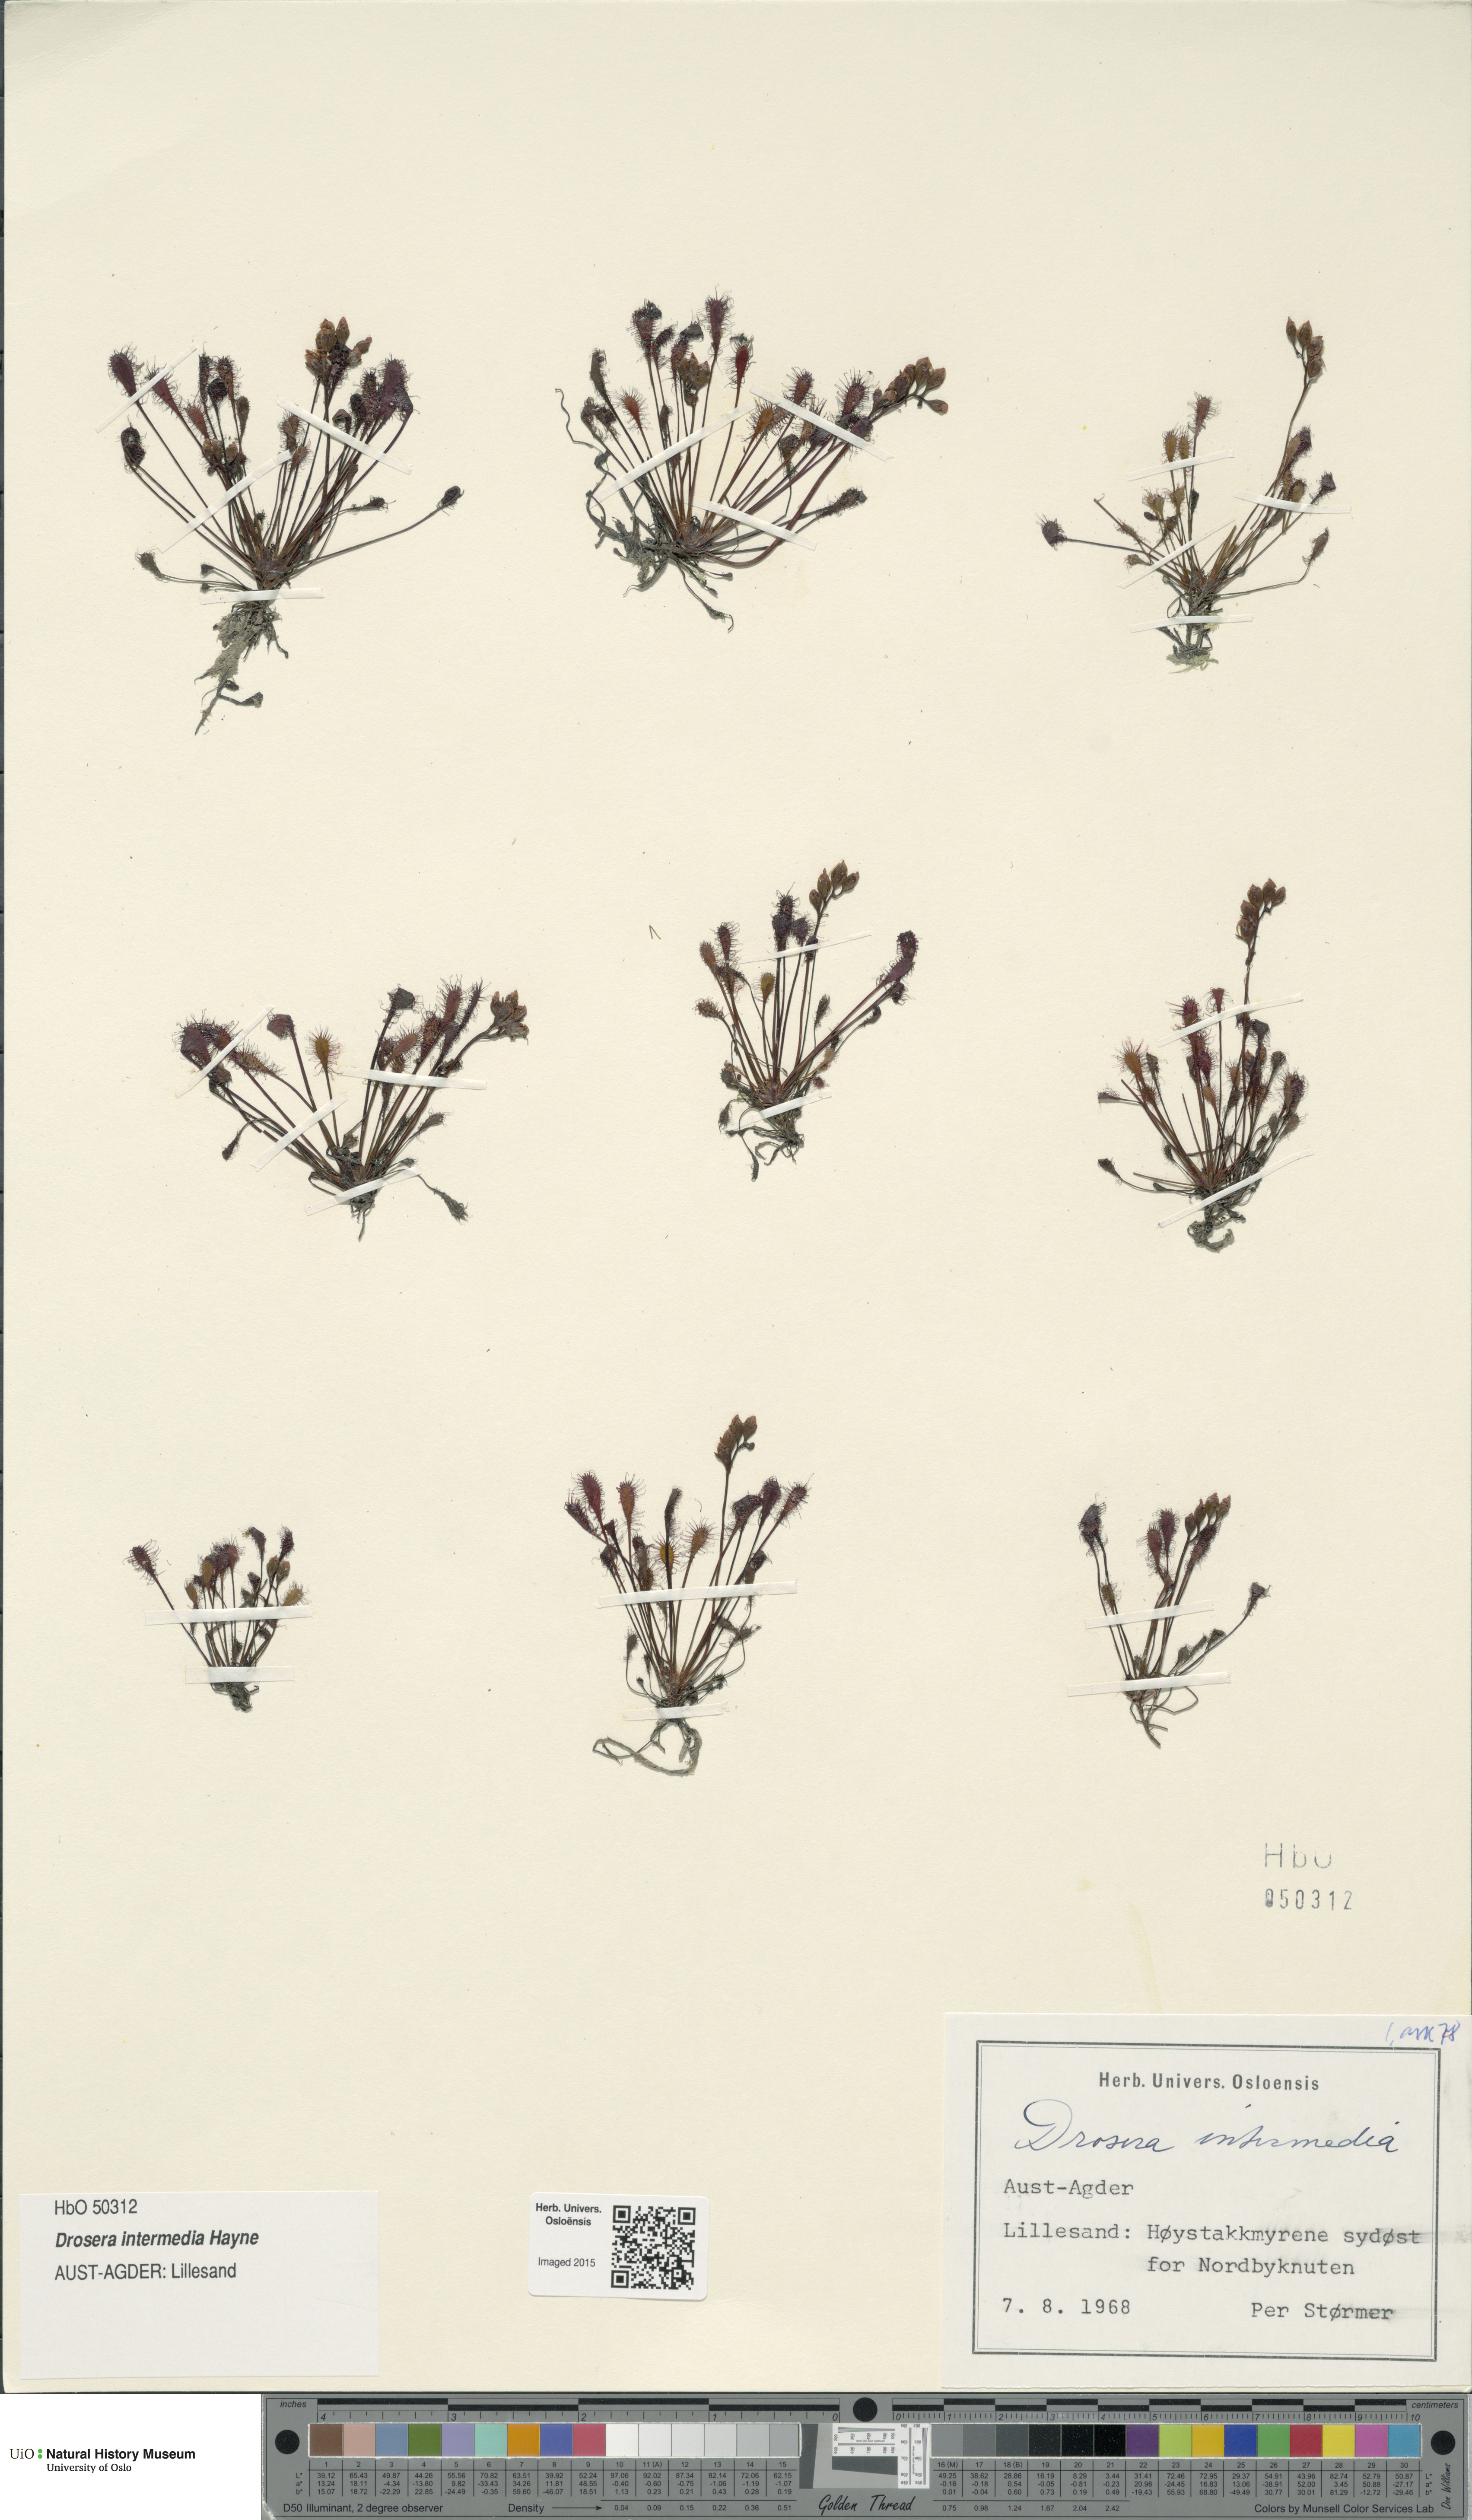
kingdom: Plantae
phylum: Tracheophyta
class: Magnoliopsida
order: Caryophyllales
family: Droseraceae
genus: Drosera
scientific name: Drosera intermedia
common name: Oblong-leaved sundew
